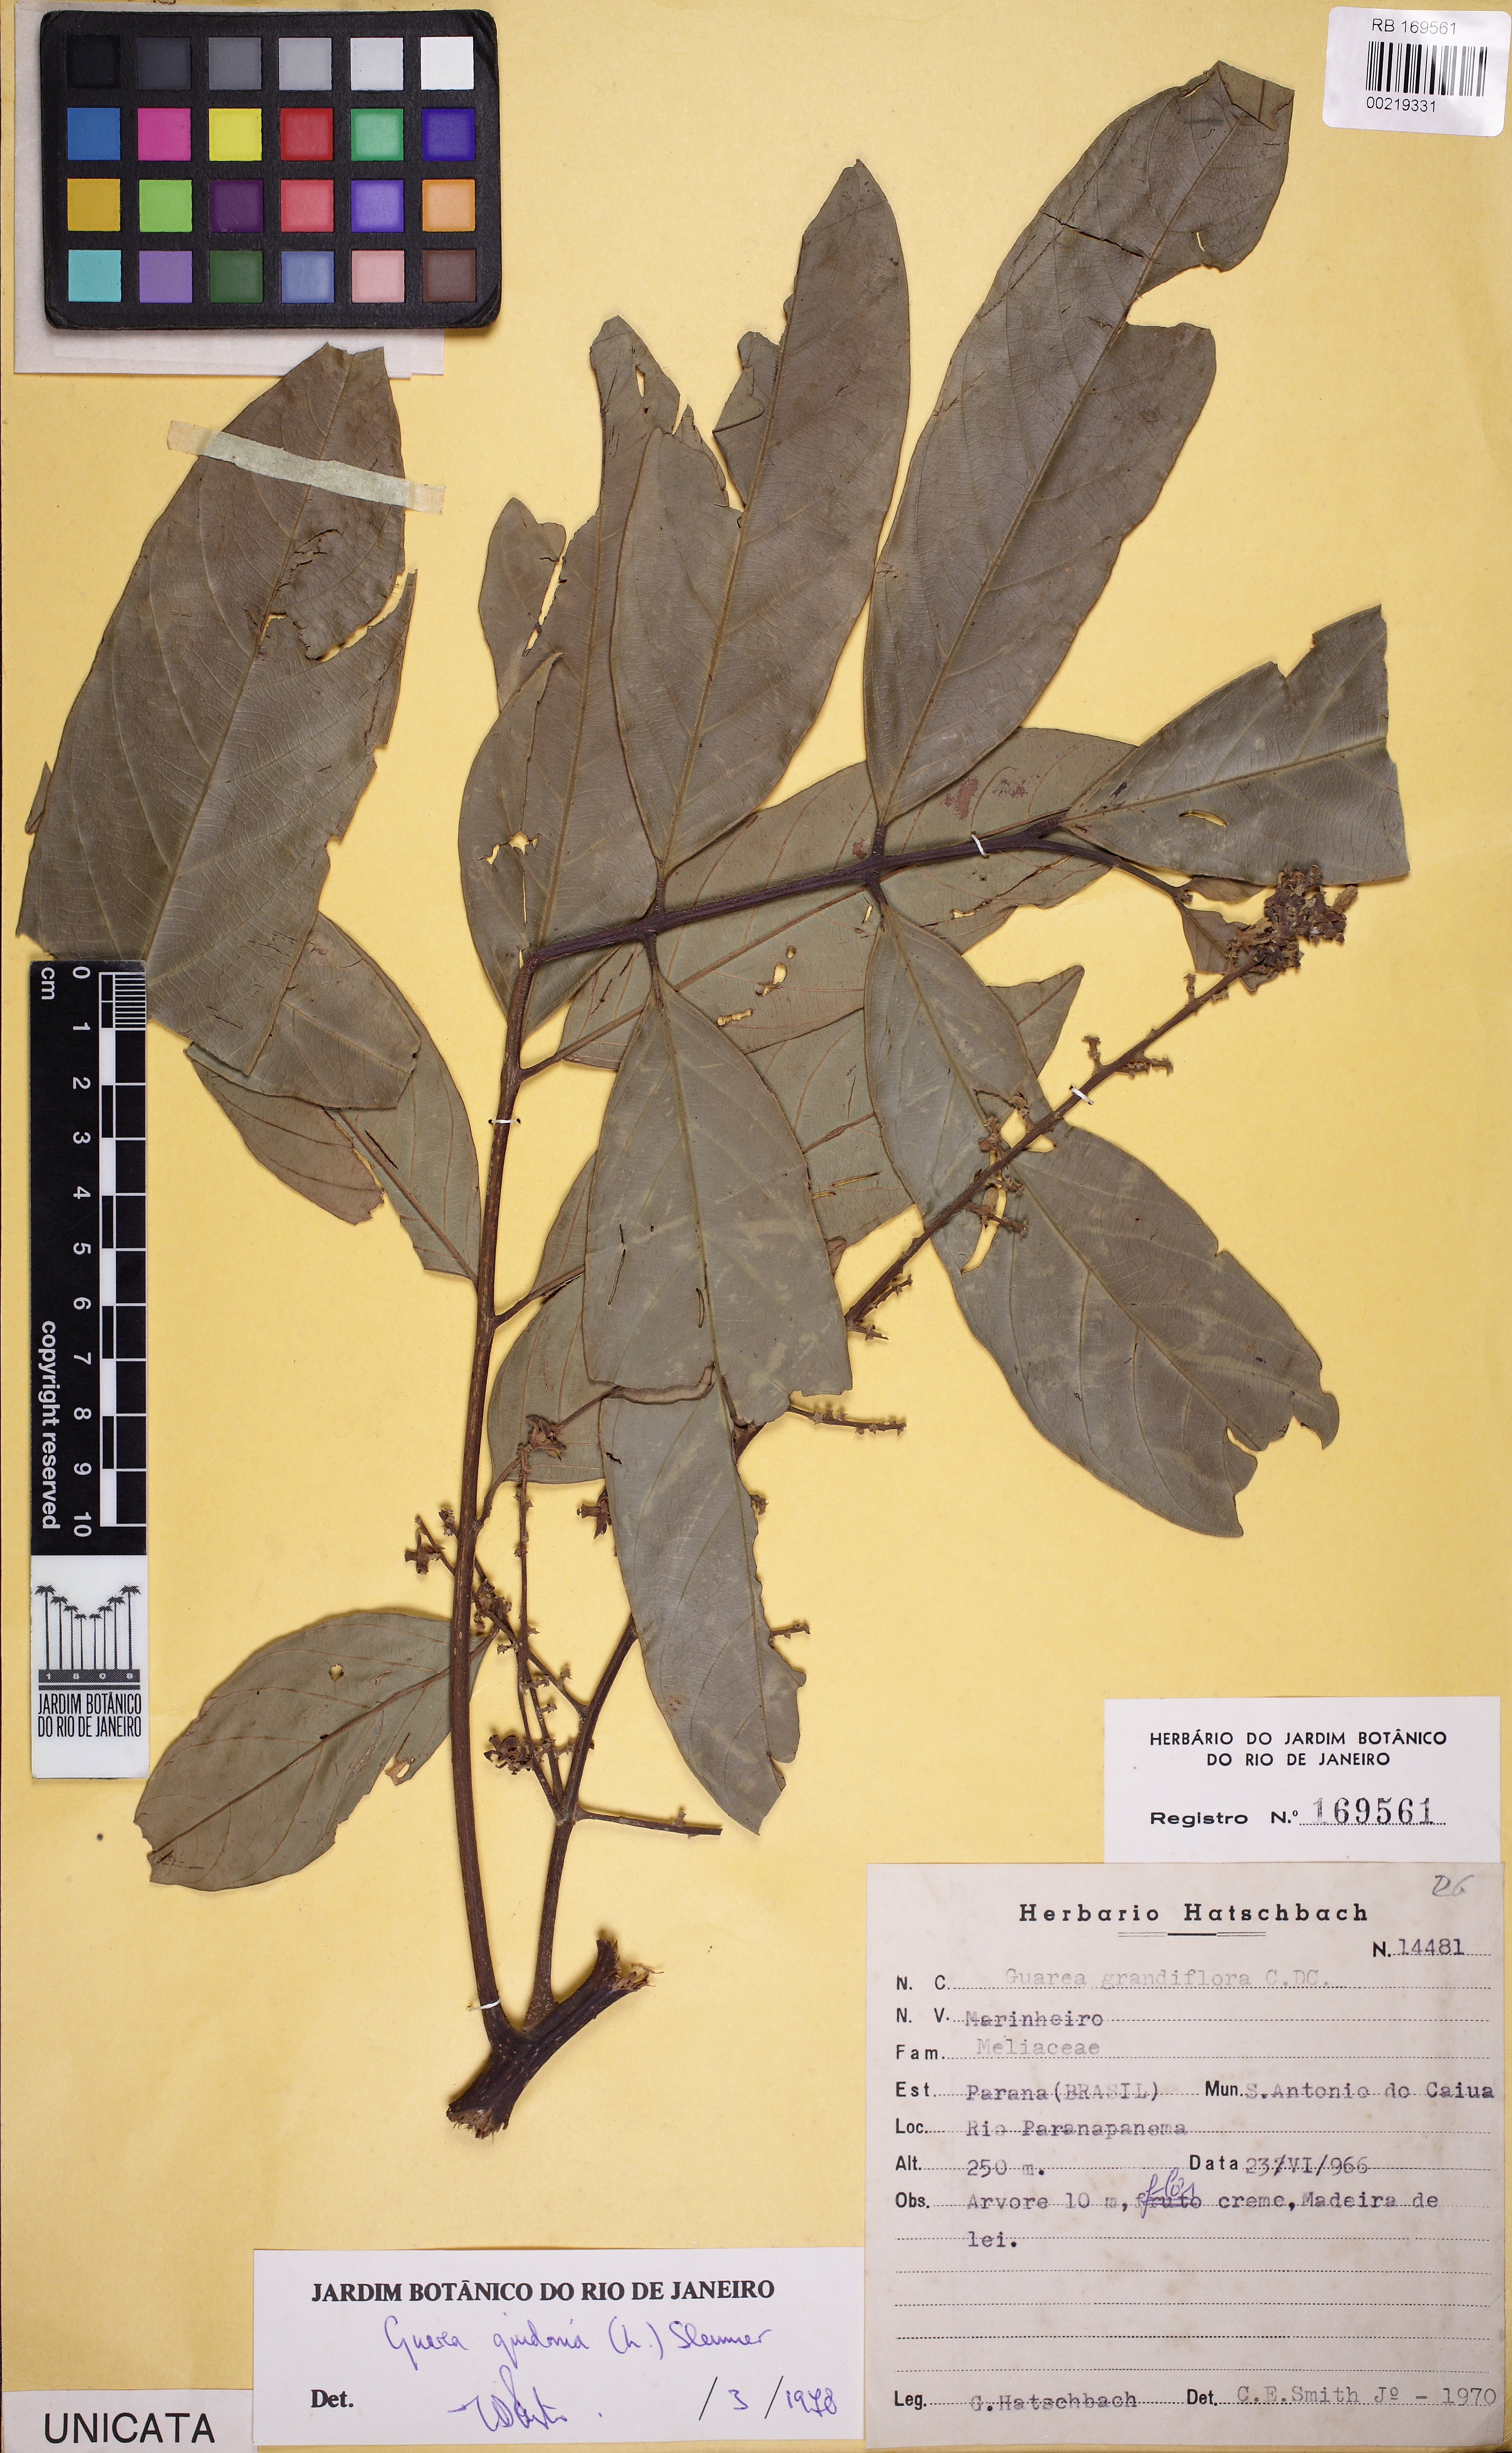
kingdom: Plantae
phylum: Tracheophyta
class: Magnoliopsida
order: Sapindales
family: Meliaceae
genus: Guarea
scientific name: Guarea guidonia
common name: American muskwood
